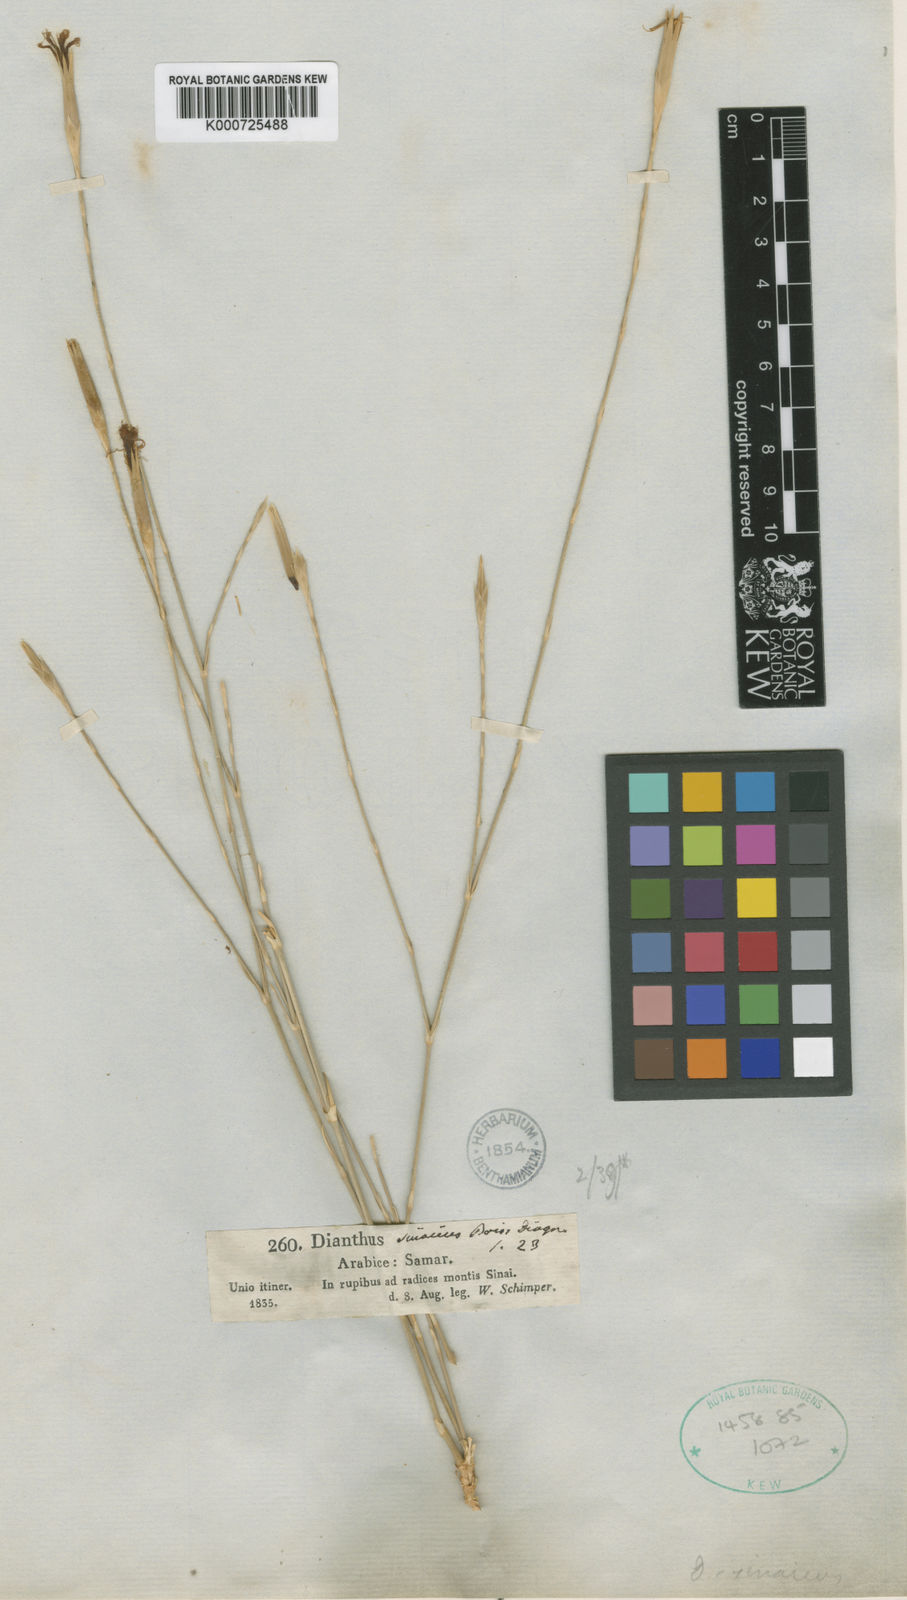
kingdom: Plantae
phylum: Tracheophyta
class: Magnoliopsida
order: Caryophyllales
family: Caryophyllaceae
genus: Dianthus
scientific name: Dianthus sinaicus
